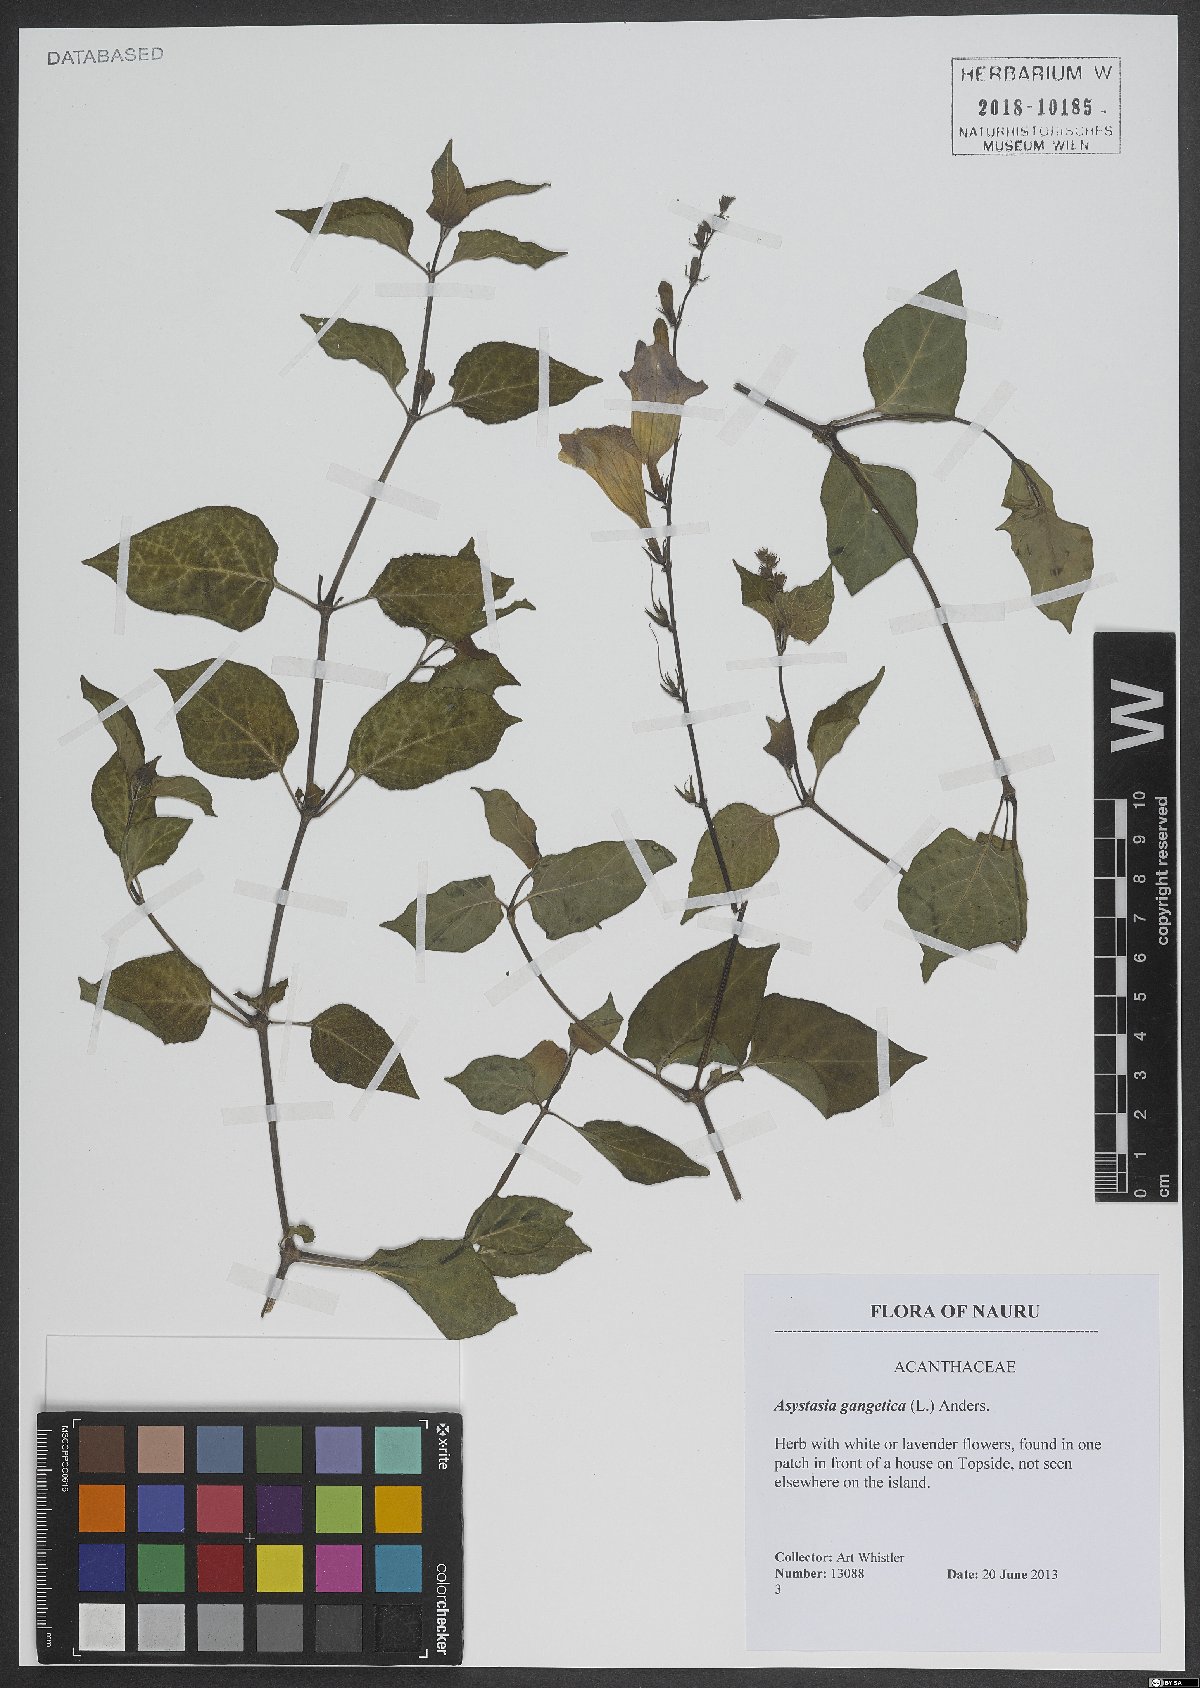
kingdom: Plantae
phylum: Tracheophyta
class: Magnoliopsida
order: Lamiales
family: Acanthaceae
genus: Asystasia
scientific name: Asystasia gangetica
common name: Chinese violet
